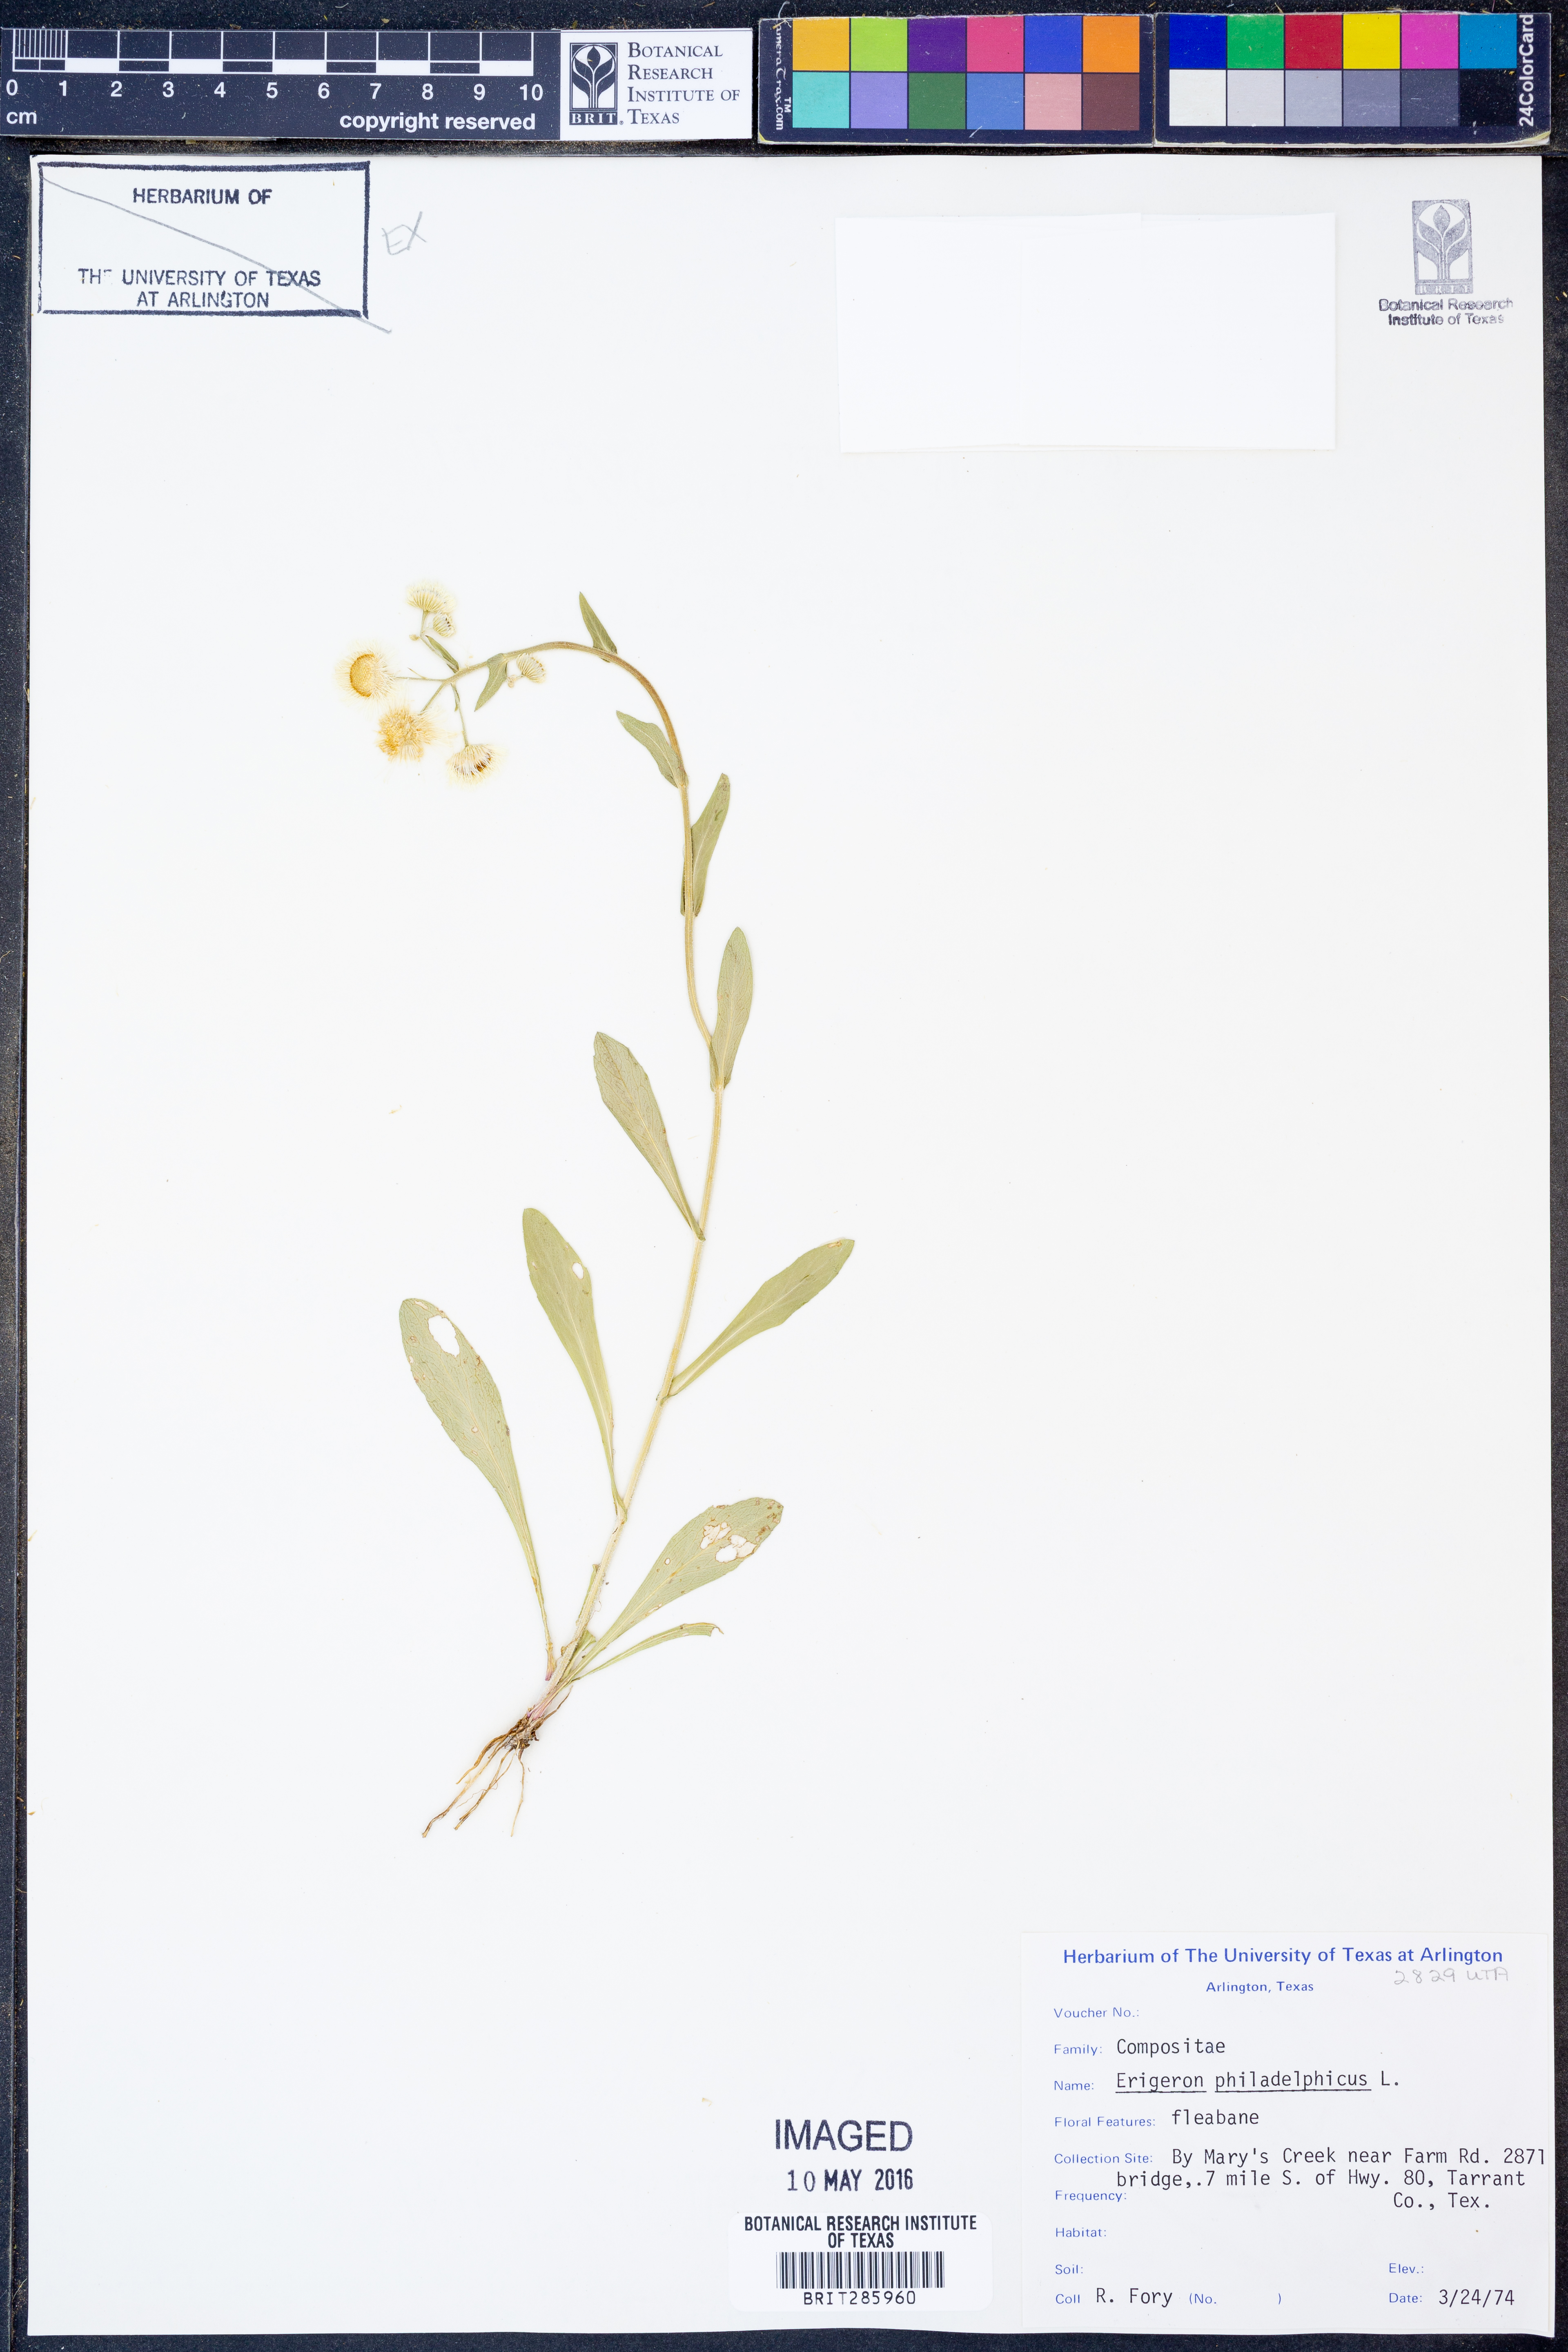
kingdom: Plantae
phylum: Tracheophyta
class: Magnoliopsida
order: Asterales
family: Asteraceae
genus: Erigeron
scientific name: Erigeron philadelphicus
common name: Robin's-plantain
